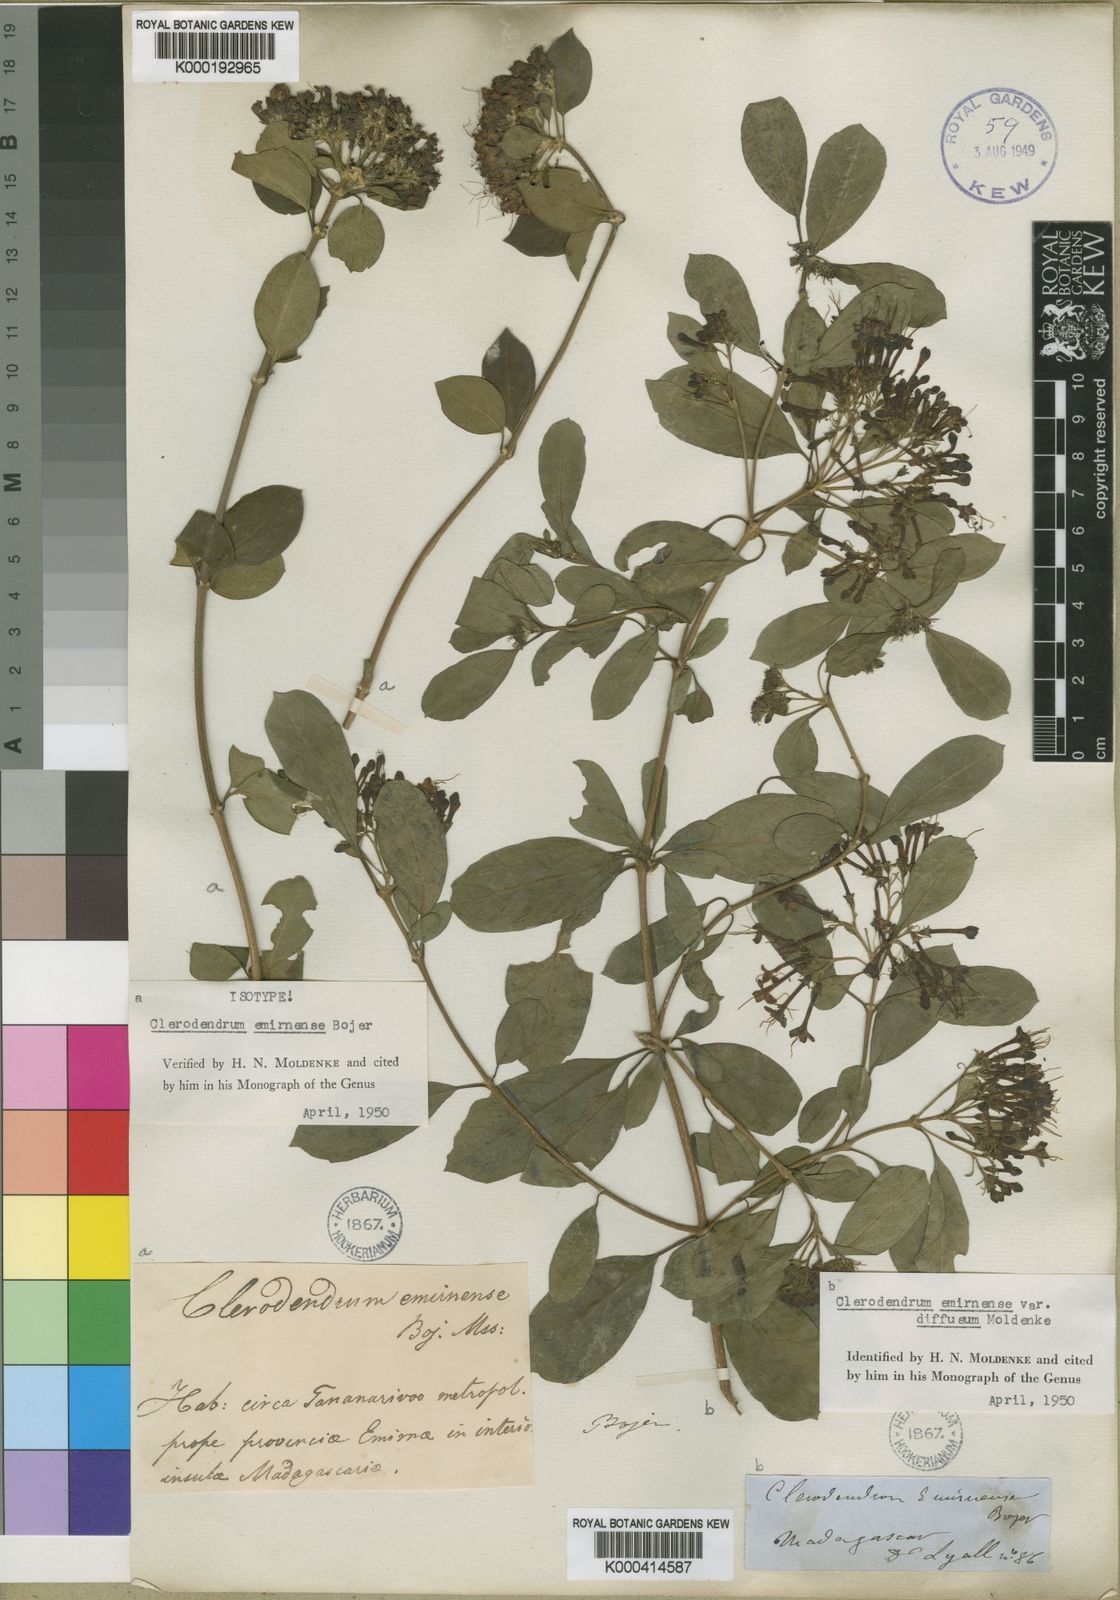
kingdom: Plantae
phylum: Tracheophyta
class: Magnoliopsida
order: Lamiales
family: Lamiaceae
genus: Clerodendrum
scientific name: Clerodendrum
